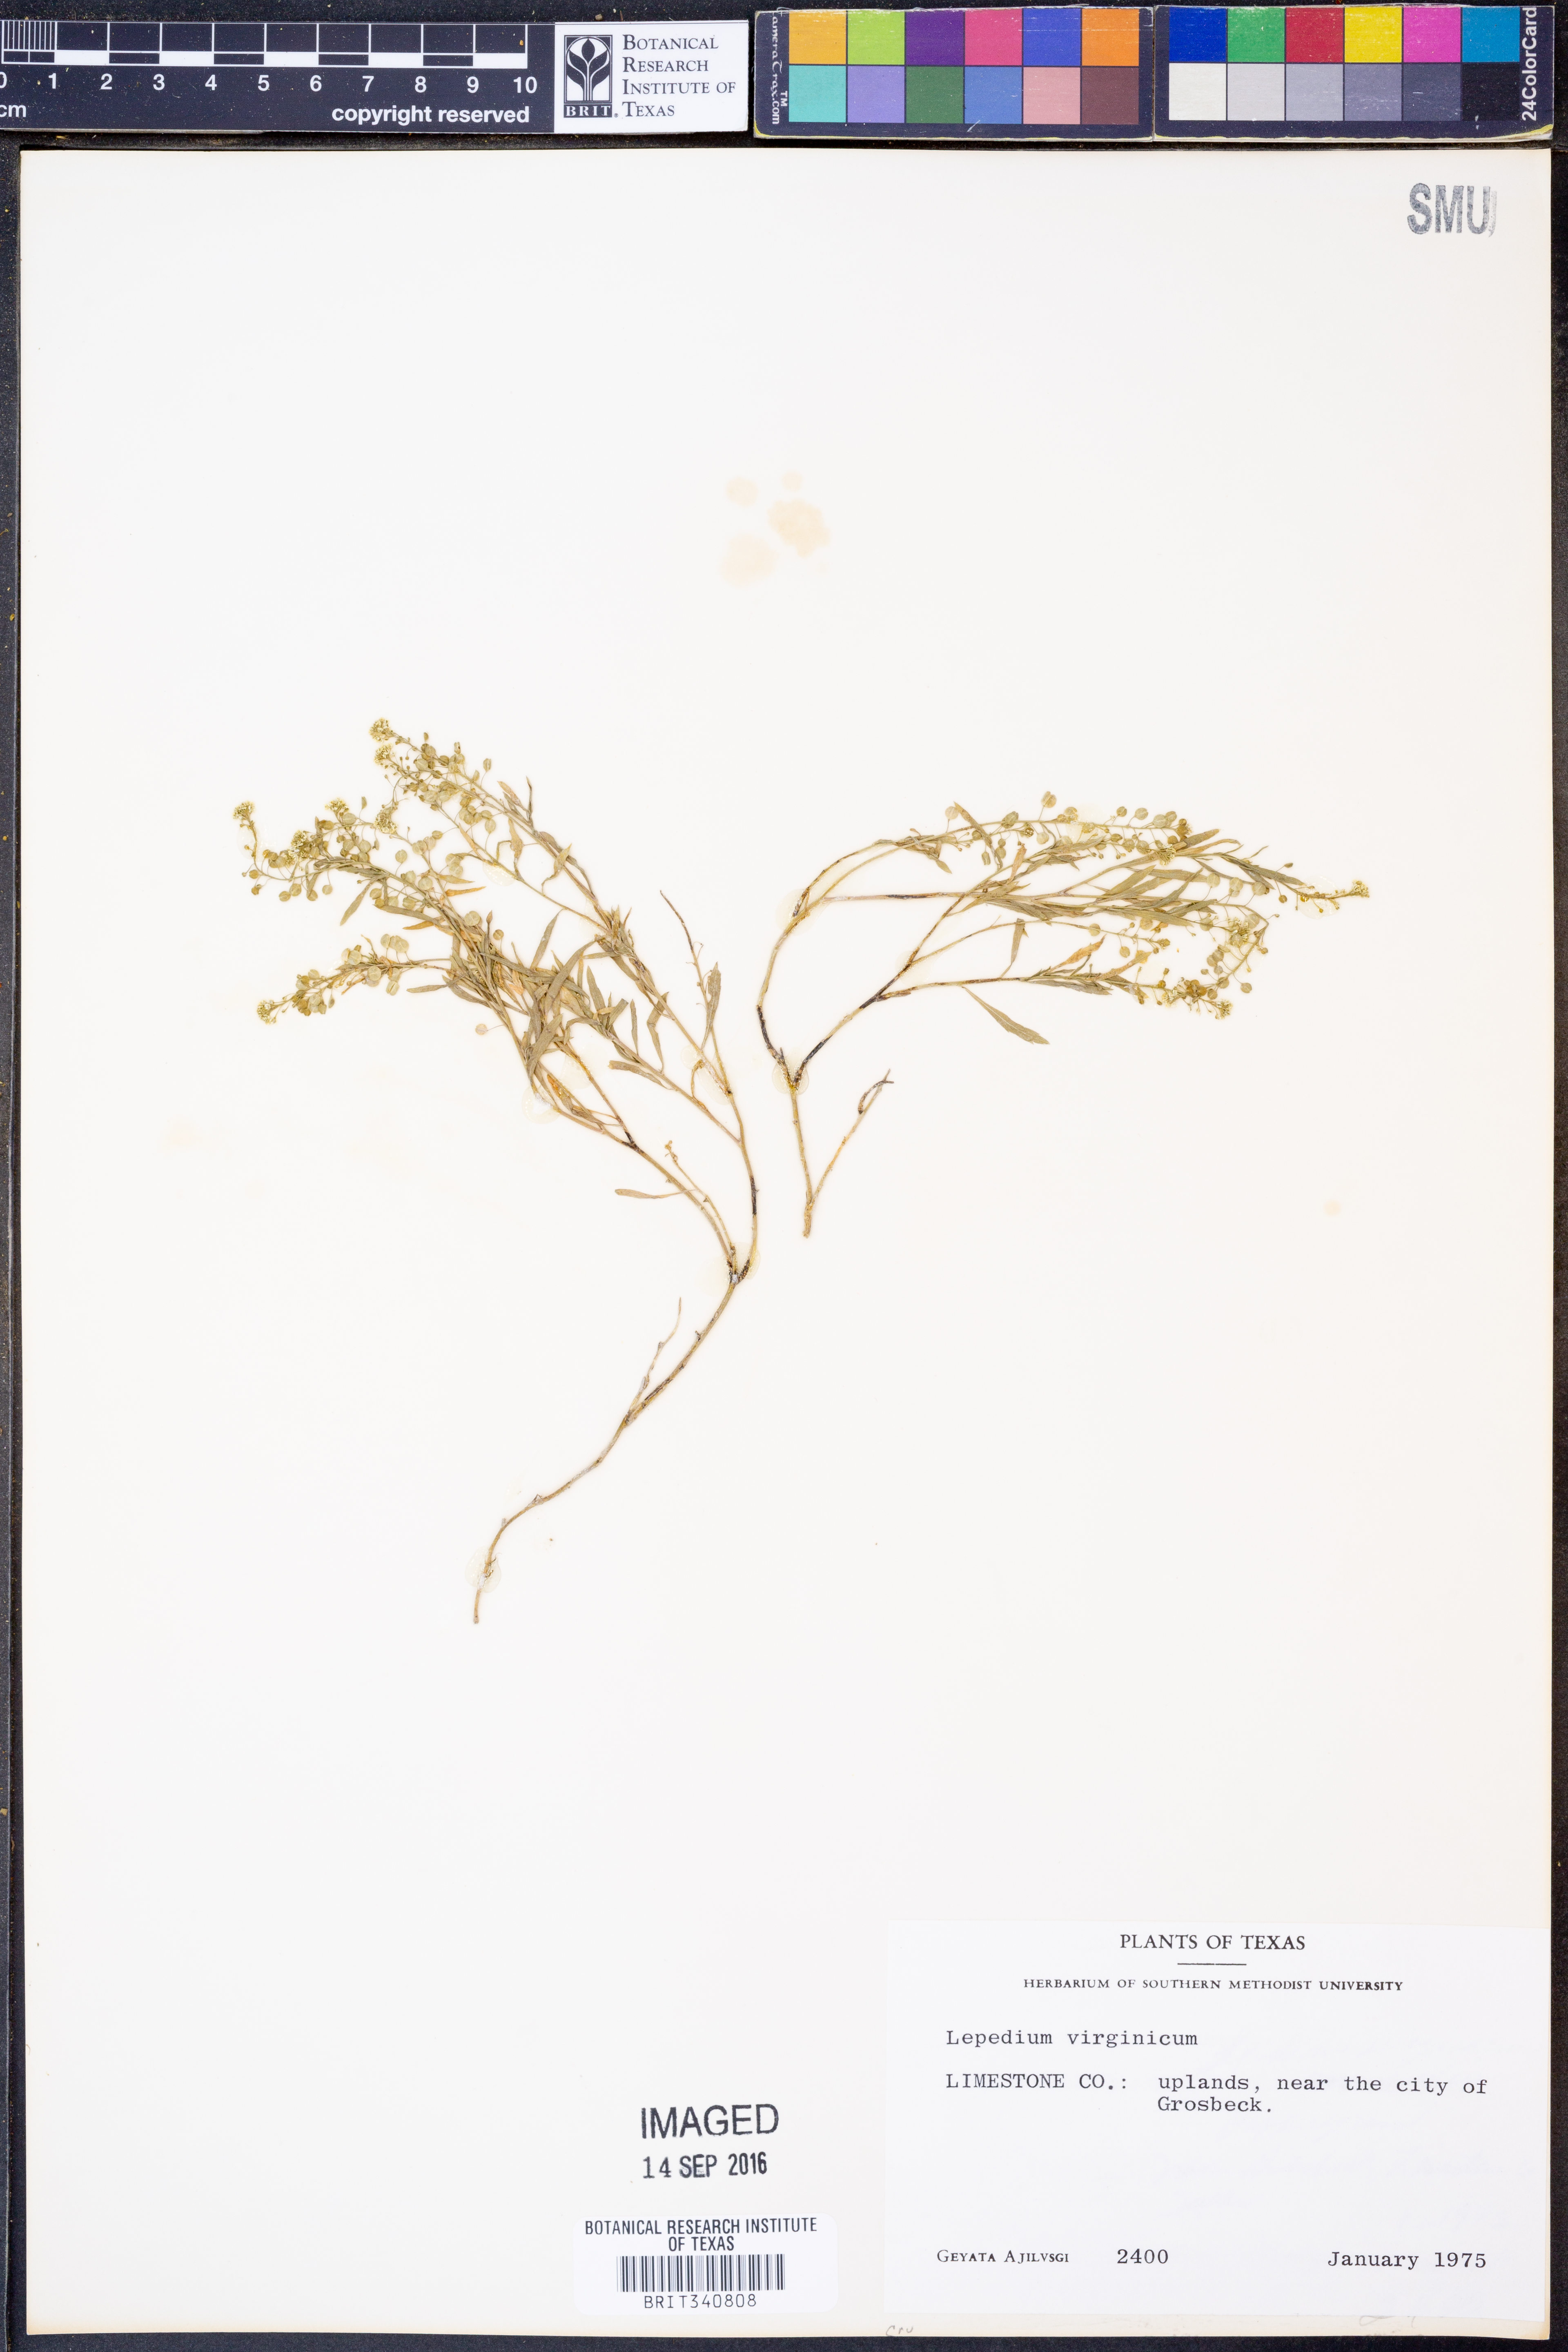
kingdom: Plantae
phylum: Tracheophyta
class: Magnoliopsida
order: Brassicales
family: Brassicaceae
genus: Lepidium
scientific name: Lepidium virginicum
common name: Least pepperwort
